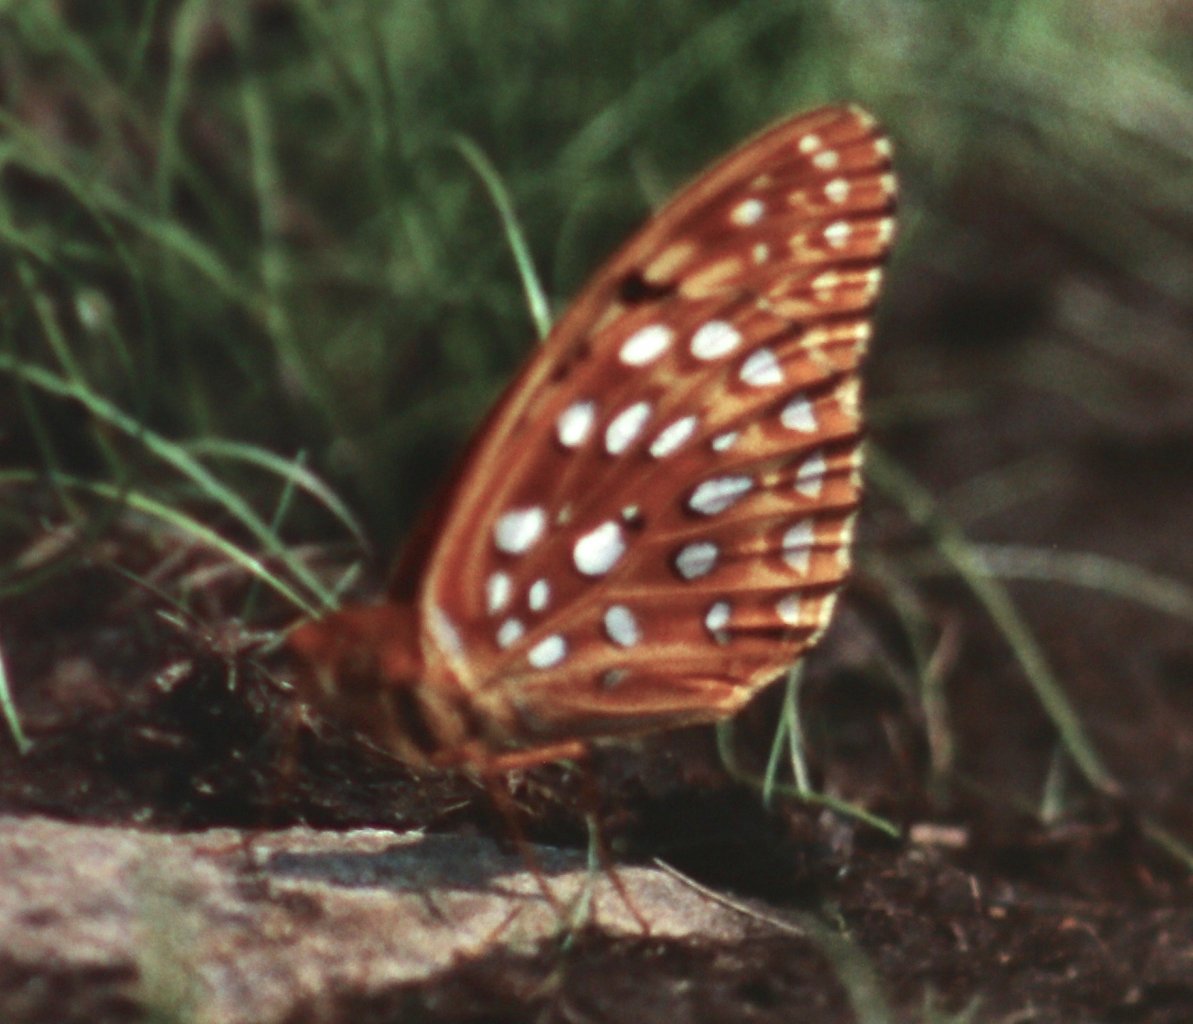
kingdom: Animalia
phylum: Arthropoda
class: Insecta
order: Lepidoptera
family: Nymphalidae
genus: Speyeria
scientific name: Speyeria aphrodite
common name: Aphrodite Fritillary
